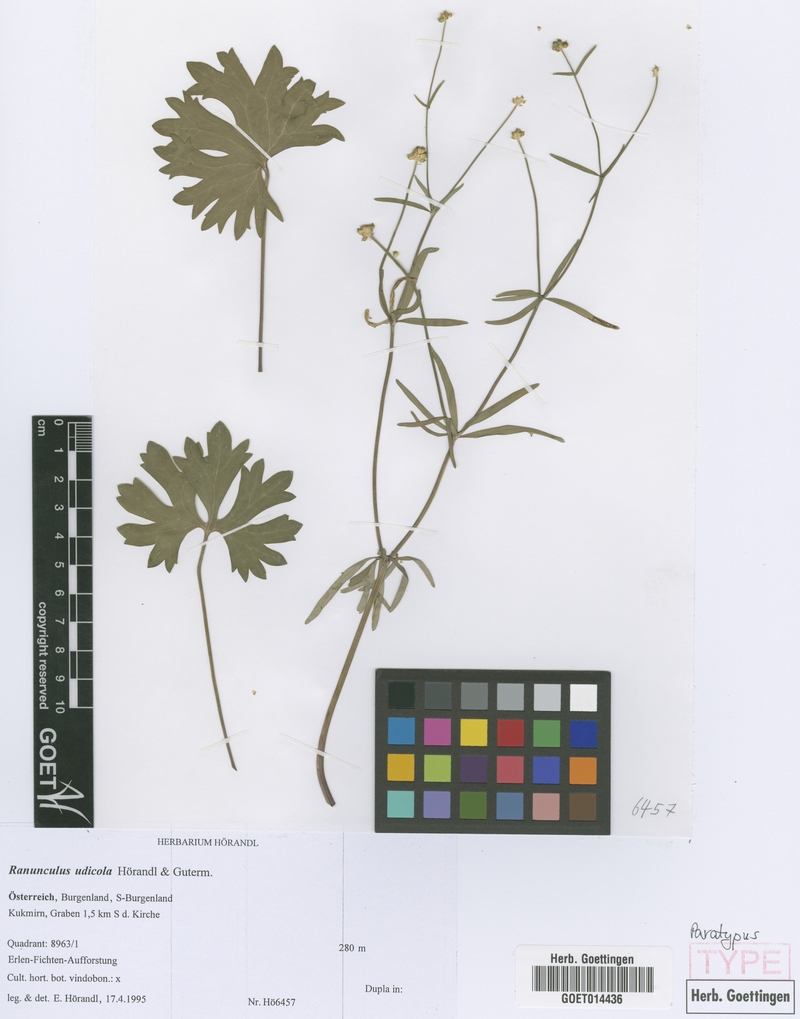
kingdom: Plantae
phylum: Tracheophyta
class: Magnoliopsida
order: Ranunculales
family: Ranunculaceae
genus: Ranunculus
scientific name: Ranunculus udicola
